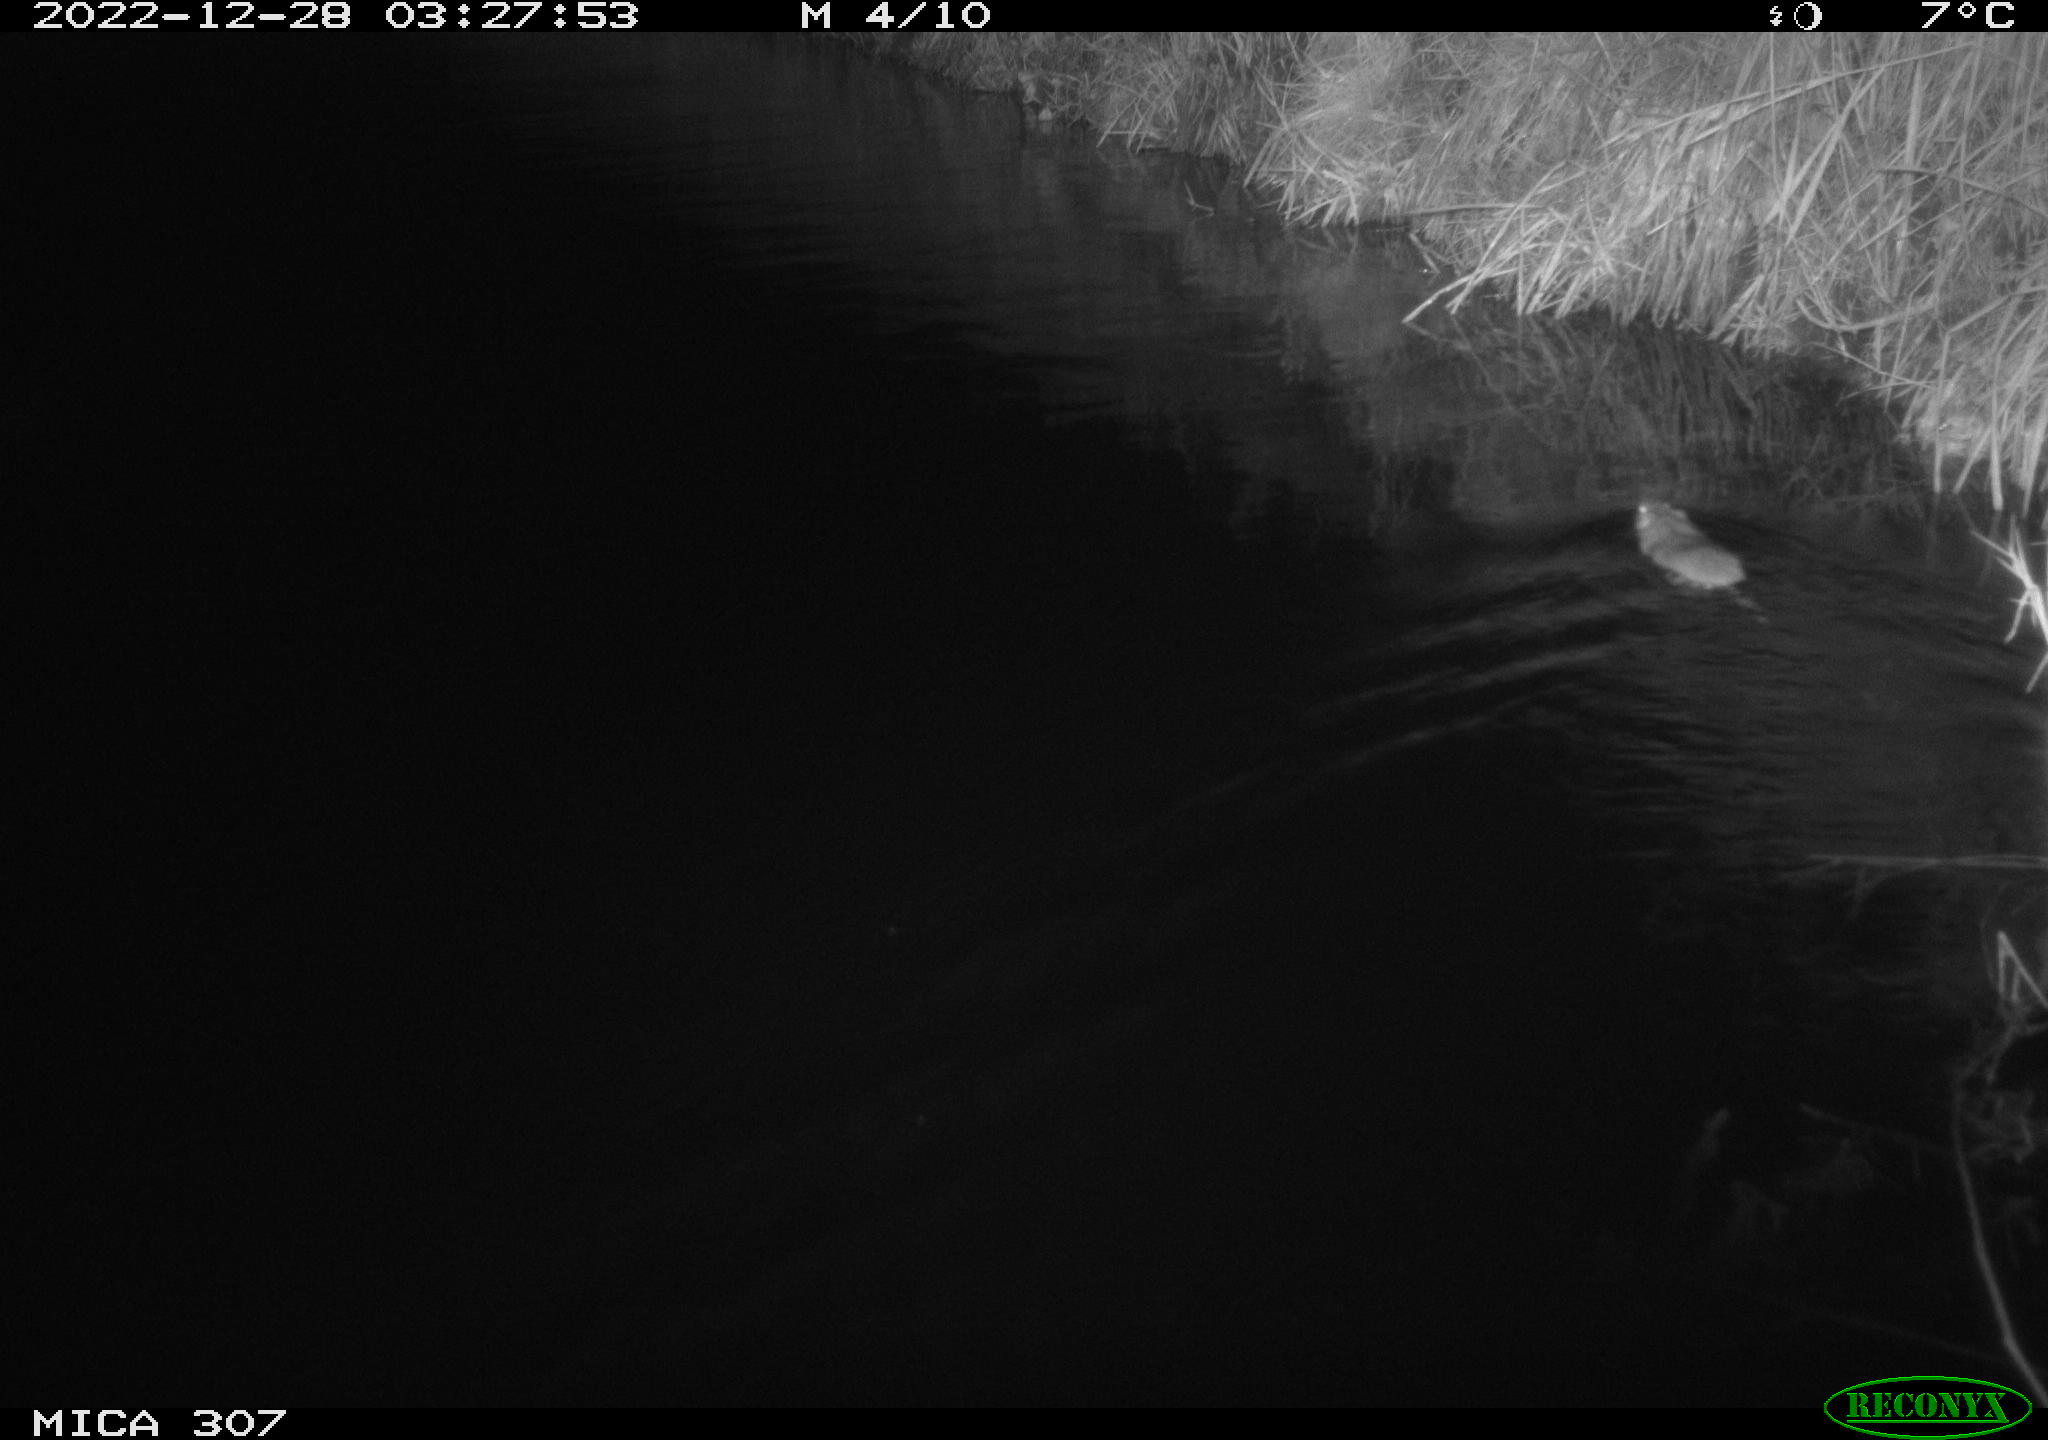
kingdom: Animalia
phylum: Chordata
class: Mammalia
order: Rodentia
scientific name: Rodentia
